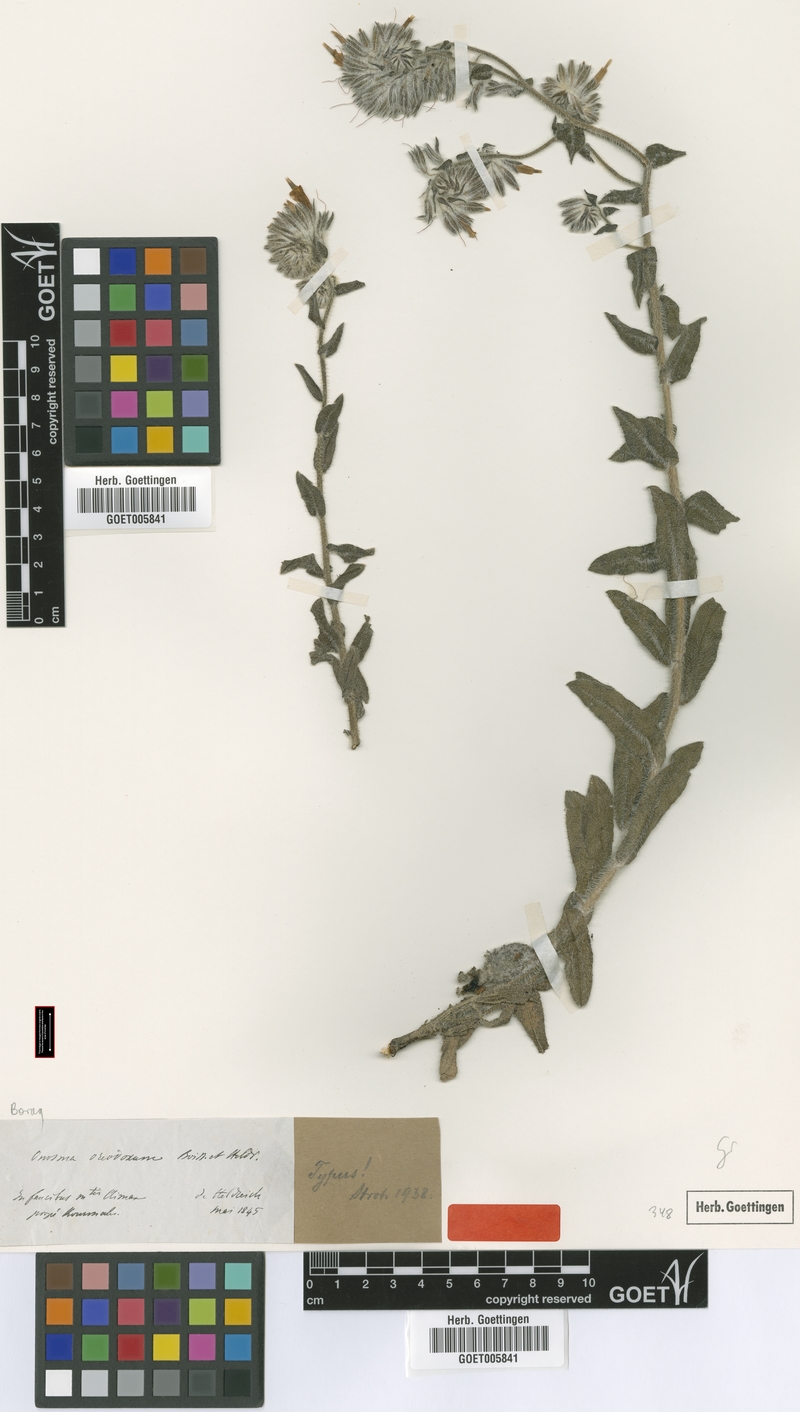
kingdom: Plantae
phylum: Tracheophyta
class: Magnoliopsida
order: Boraginales
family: Boraginaceae
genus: Onosma
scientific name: Onosma oreodoxa
